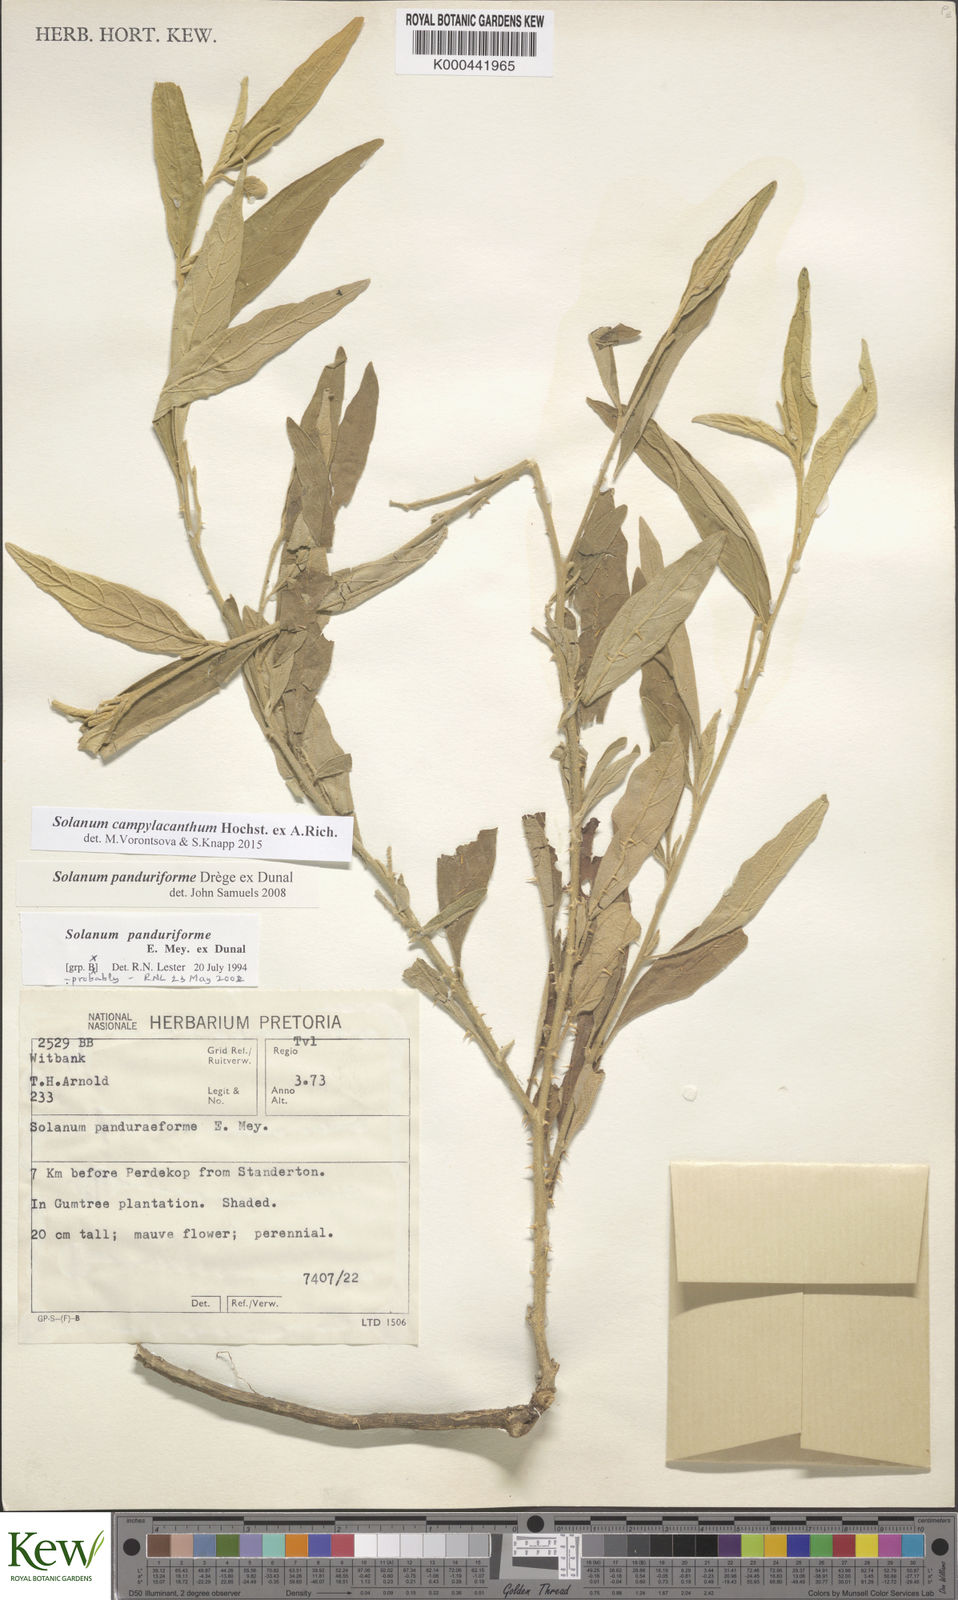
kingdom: Plantae
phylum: Tracheophyta
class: Magnoliopsida
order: Solanales
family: Solanaceae
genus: Solanum
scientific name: Solanum campylacanthum
